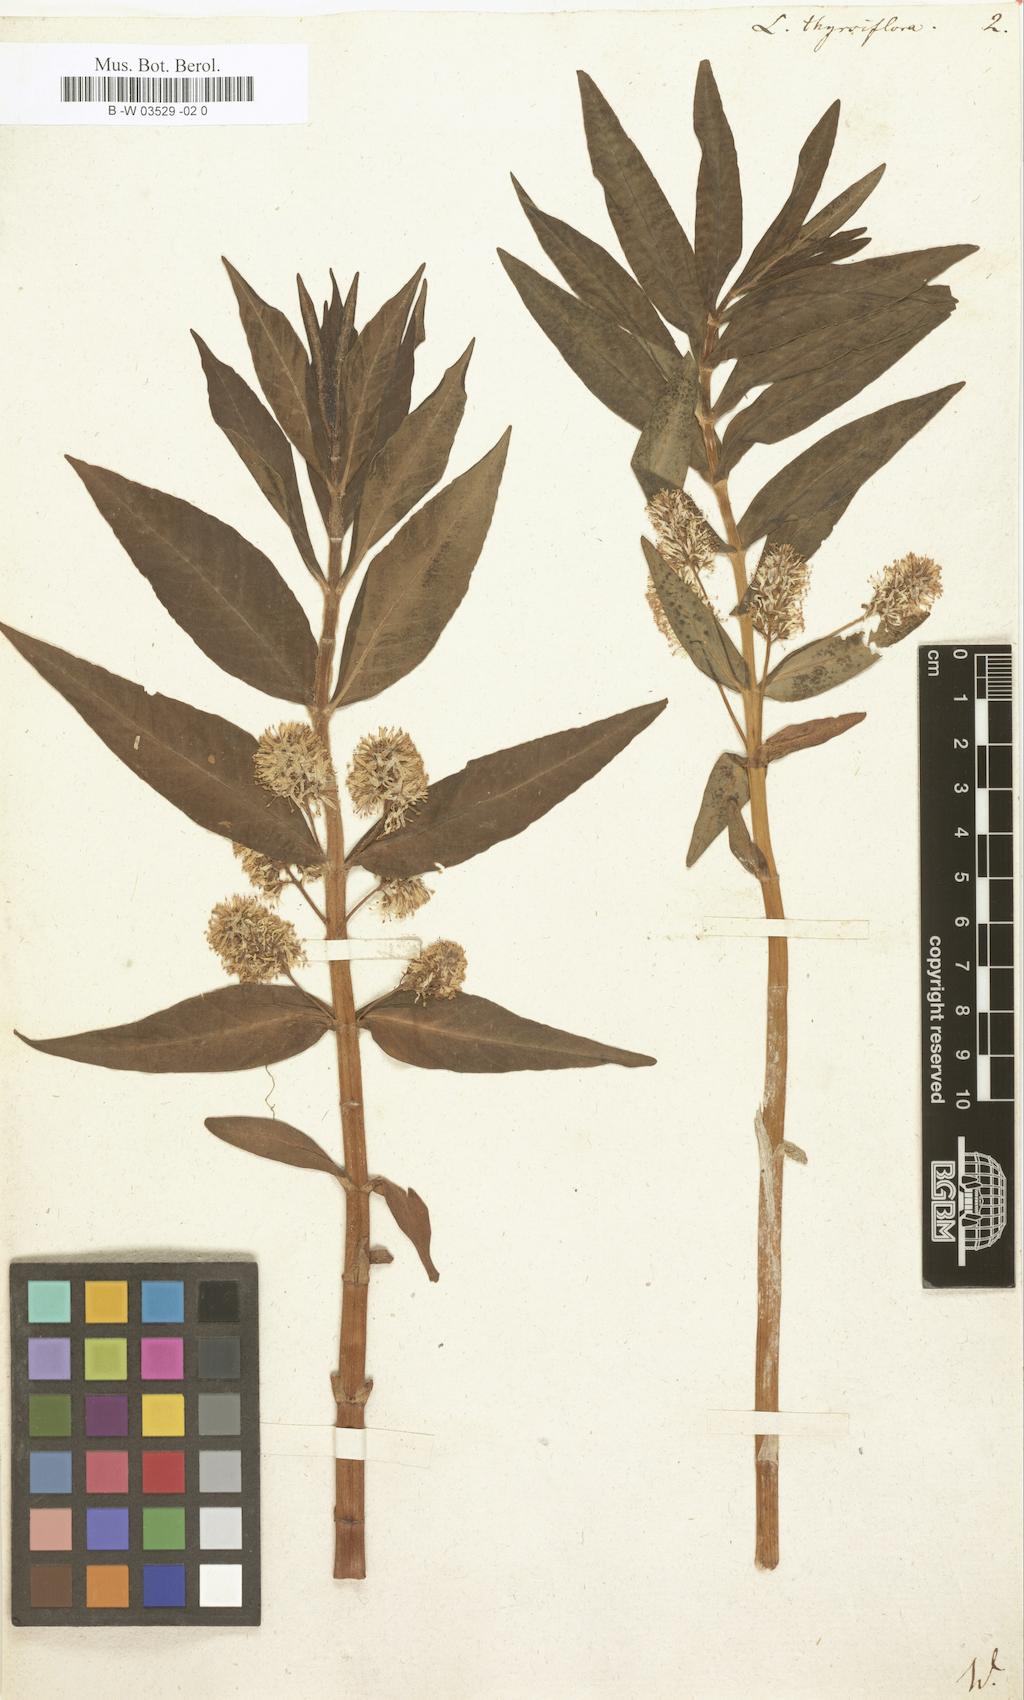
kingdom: Plantae
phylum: Tracheophyta
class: Magnoliopsida
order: Ericales
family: Primulaceae
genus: Lysimachia
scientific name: Lysimachia thyrsiflora
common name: Tufted loosestrife
